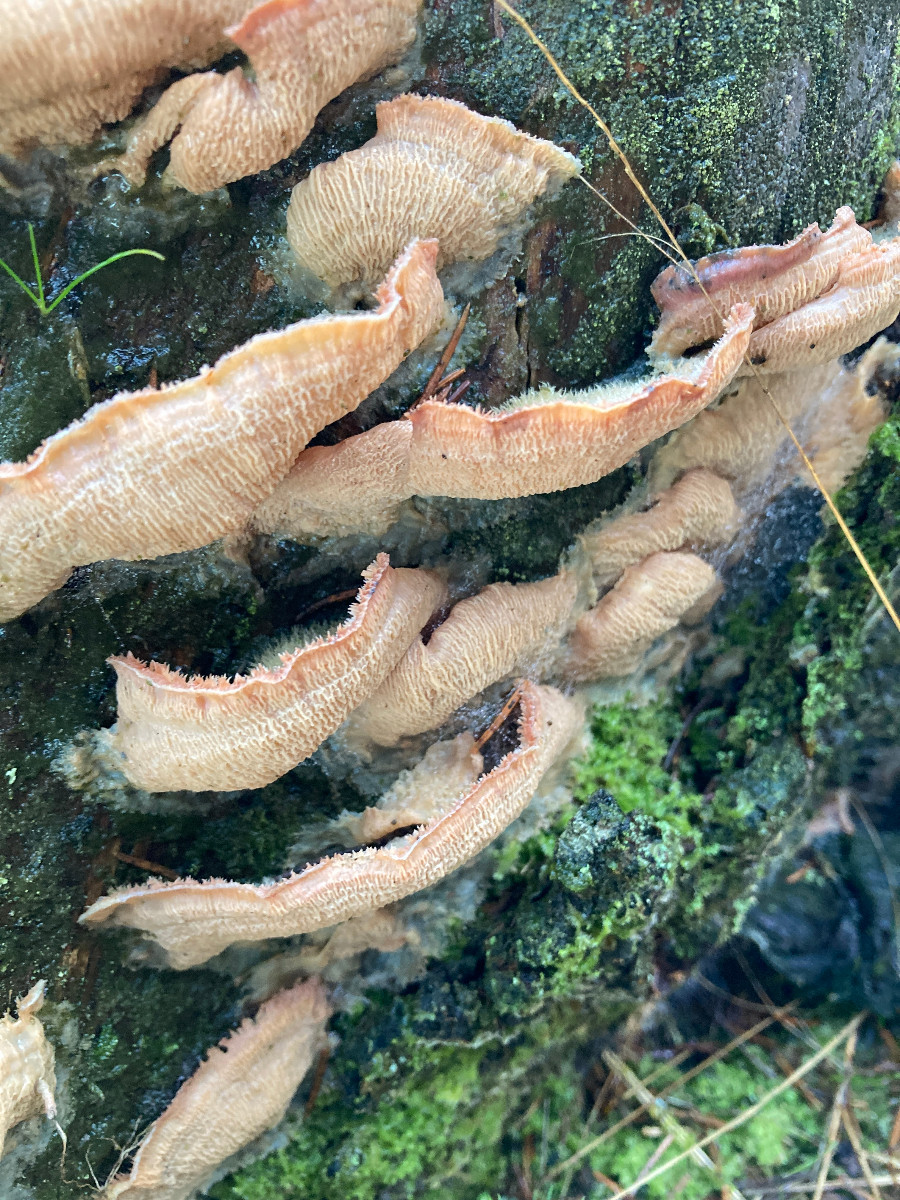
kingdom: Fungi
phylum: Basidiomycota
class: Agaricomycetes
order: Polyporales
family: Meruliaceae
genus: Phlebia
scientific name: Phlebia tremellosa
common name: bævrende åresvamp
